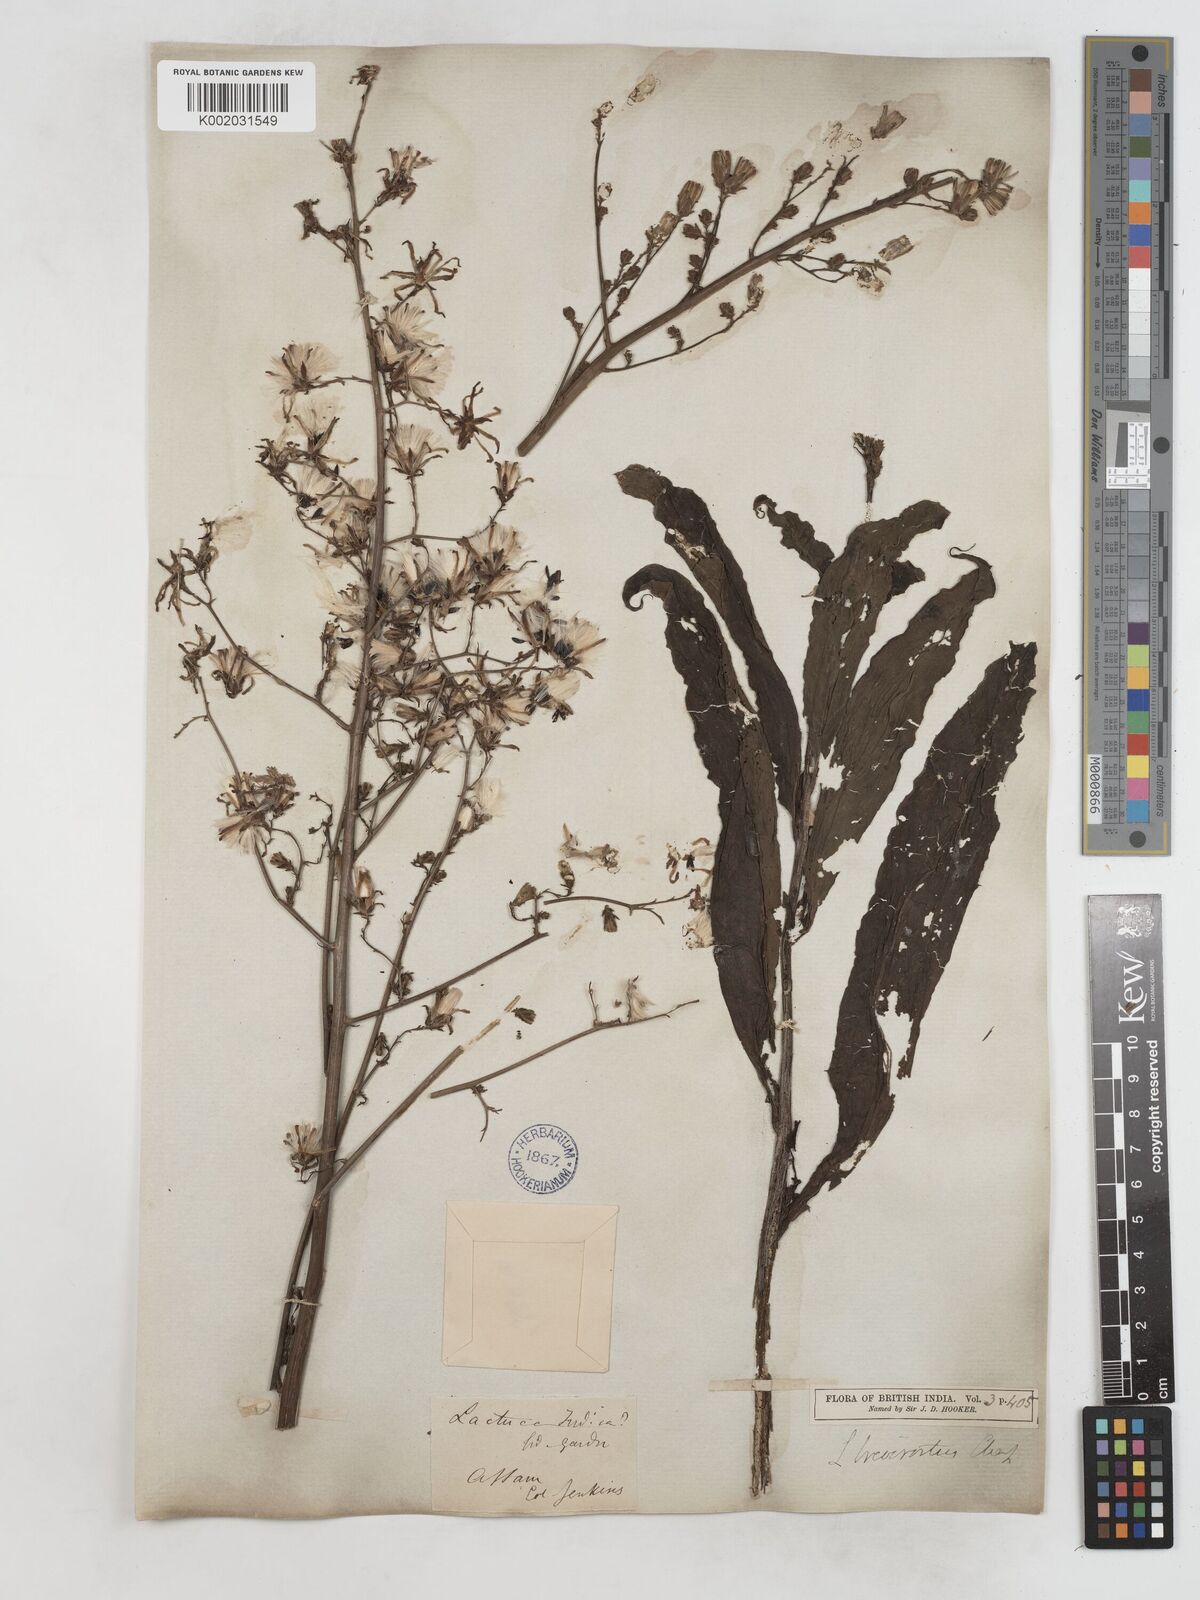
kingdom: Plantae
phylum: Tracheophyta
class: Magnoliopsida
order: Asterales
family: Asteraceae
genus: Lactuca
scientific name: Lactuca indica
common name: Wild lettuce
